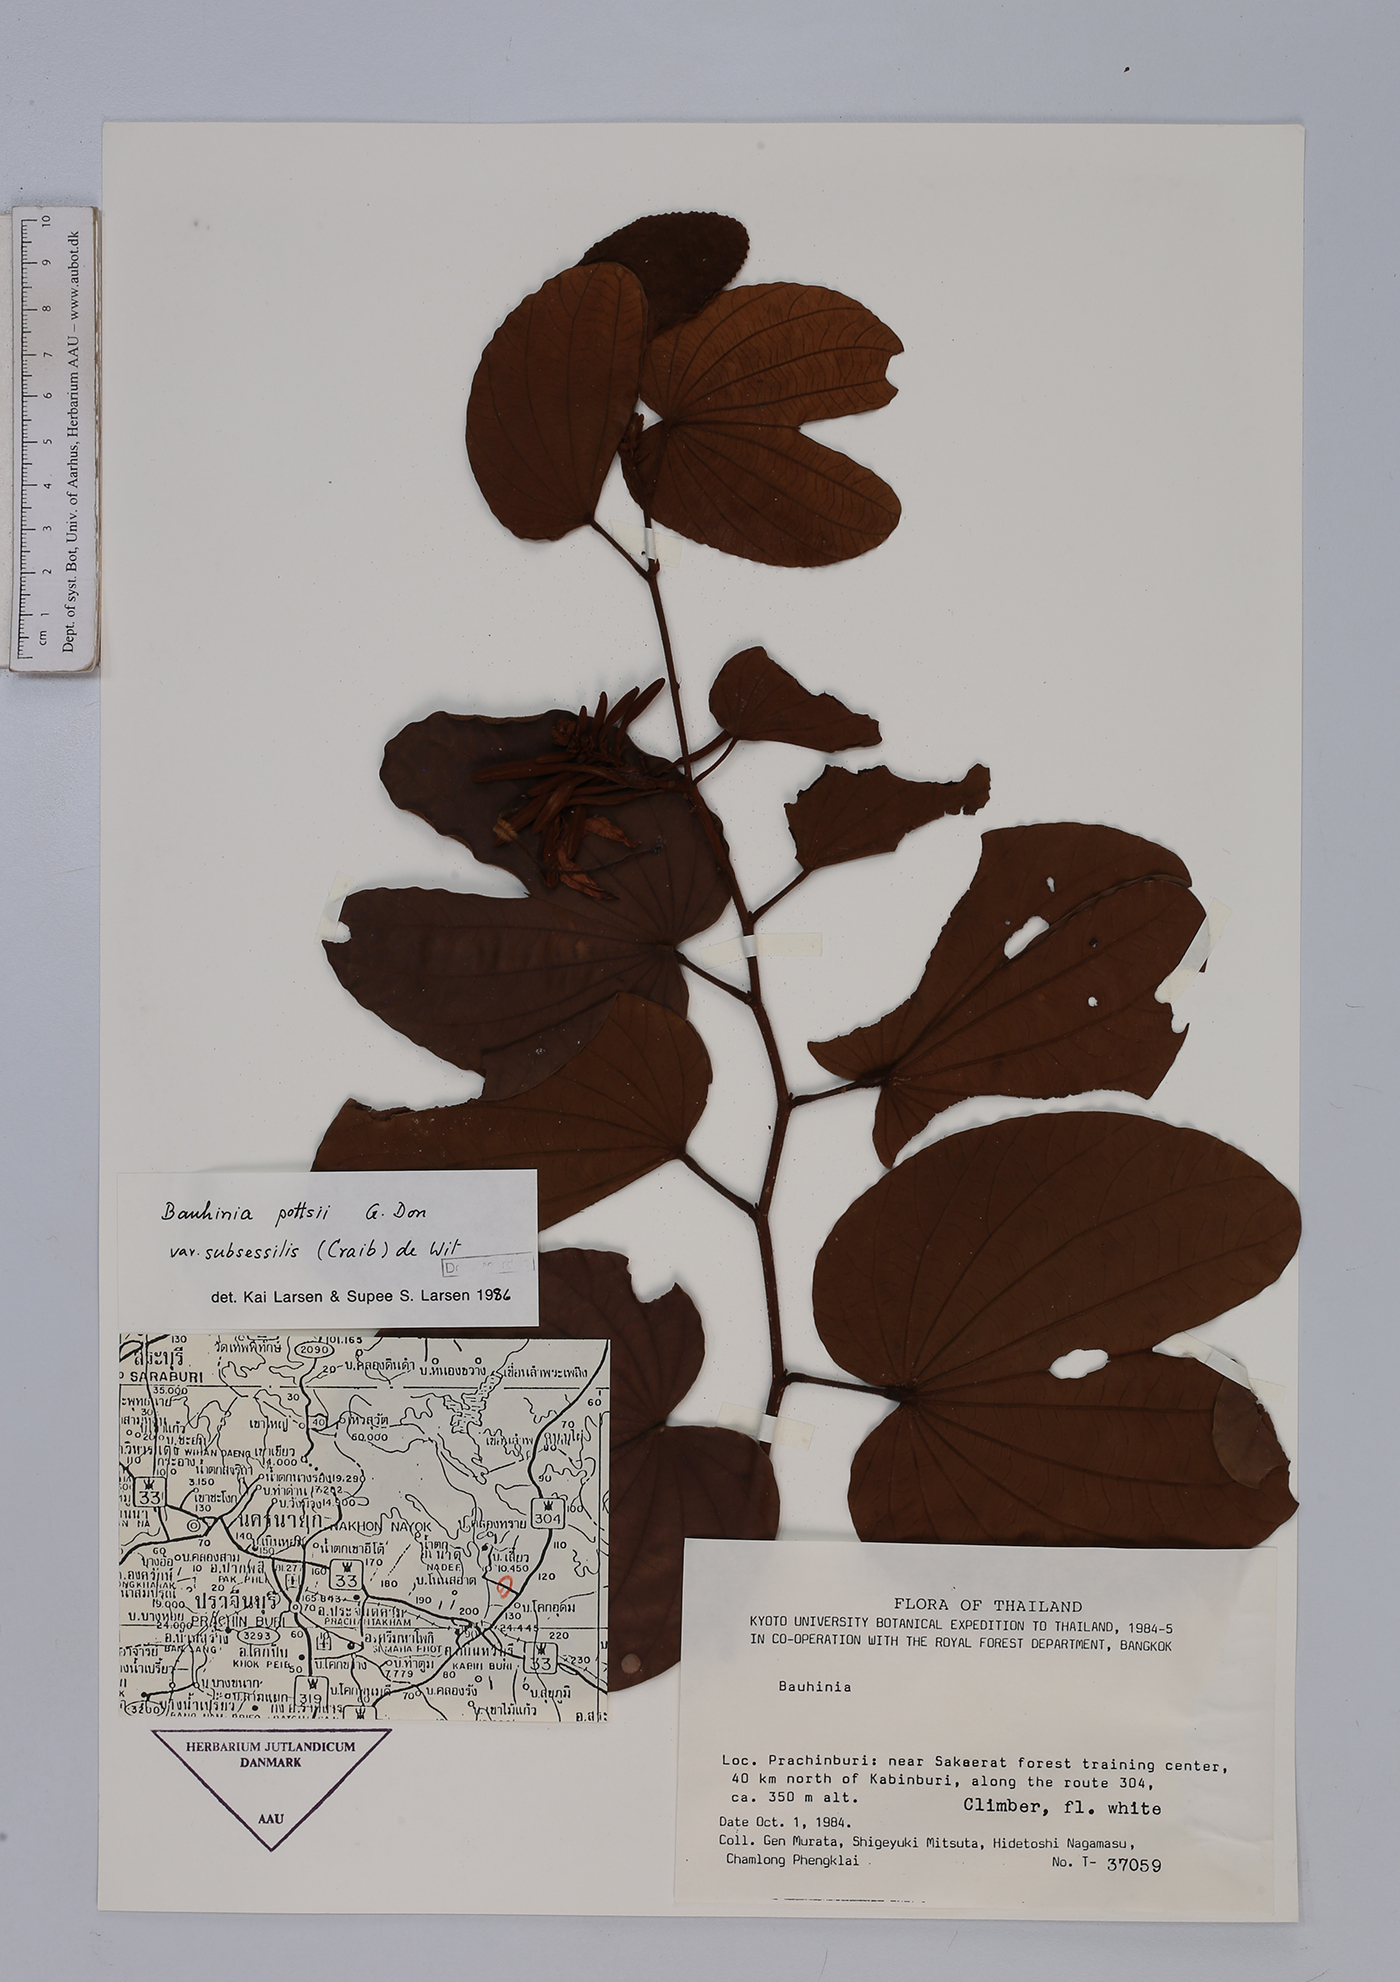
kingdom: Plantae
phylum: Tracheophyta
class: Magnoliopsida
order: Fabales
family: Fabaceae
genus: Bauhinia
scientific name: Bauhinia pottsii
